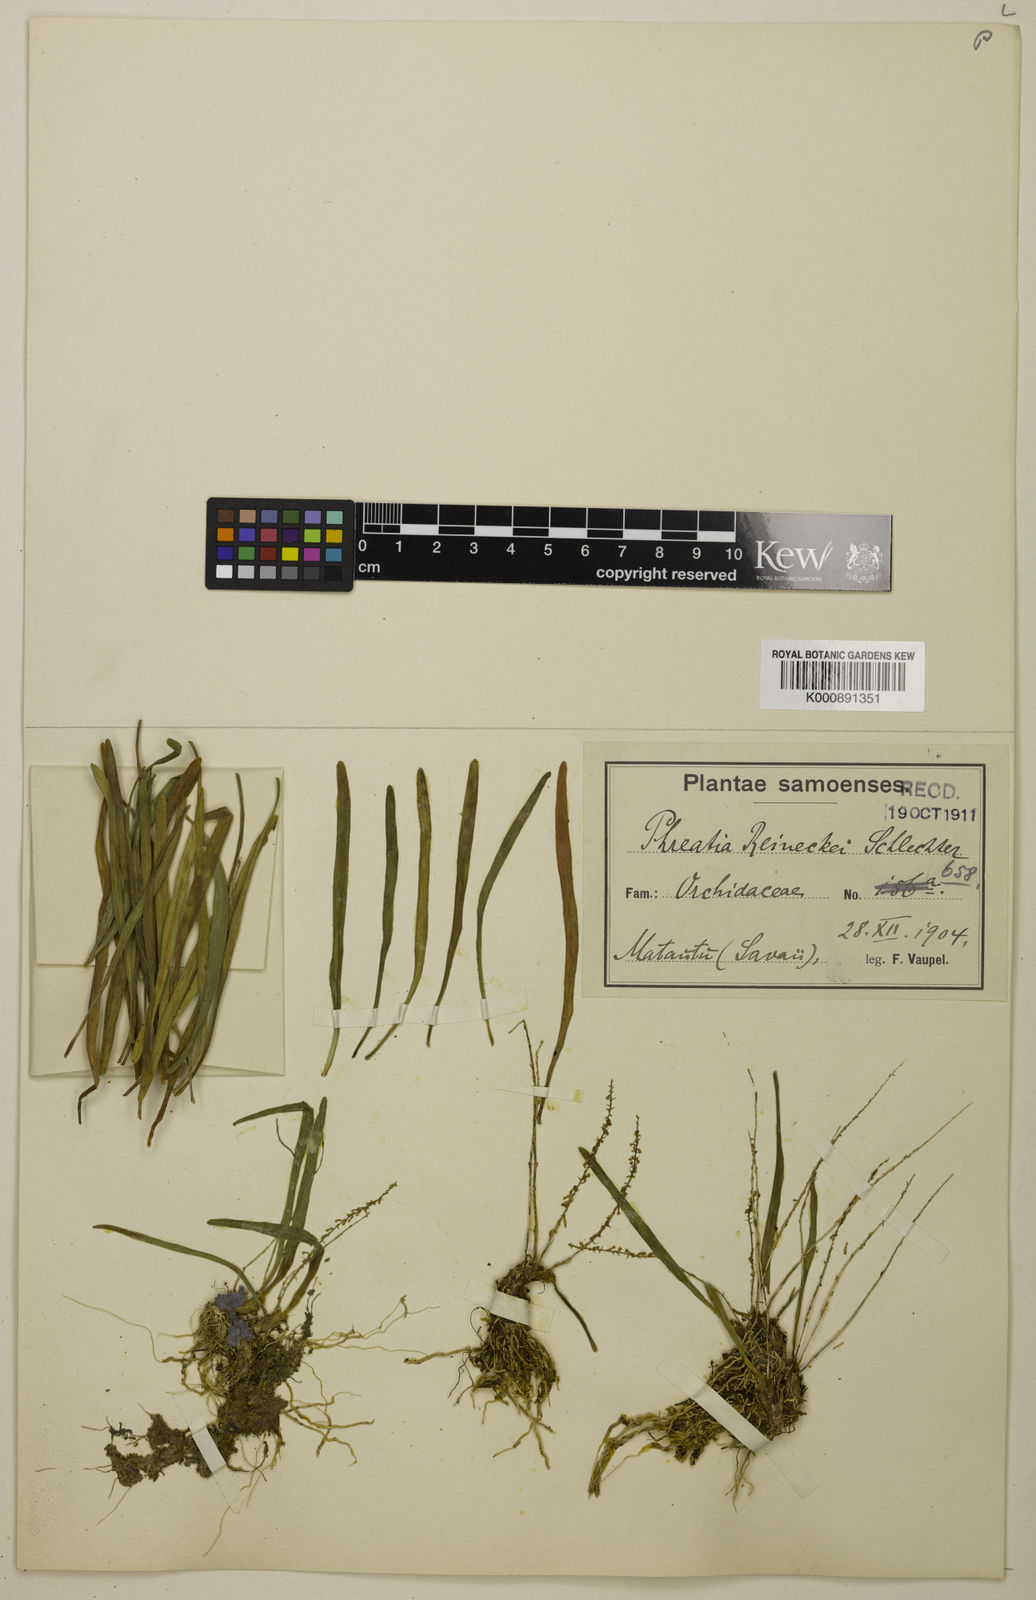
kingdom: Plantae
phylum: Tracheophyta
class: Liliopsida
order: Asparagales
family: Orchidaceae
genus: Phreatia
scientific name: Phreatia densiflora
